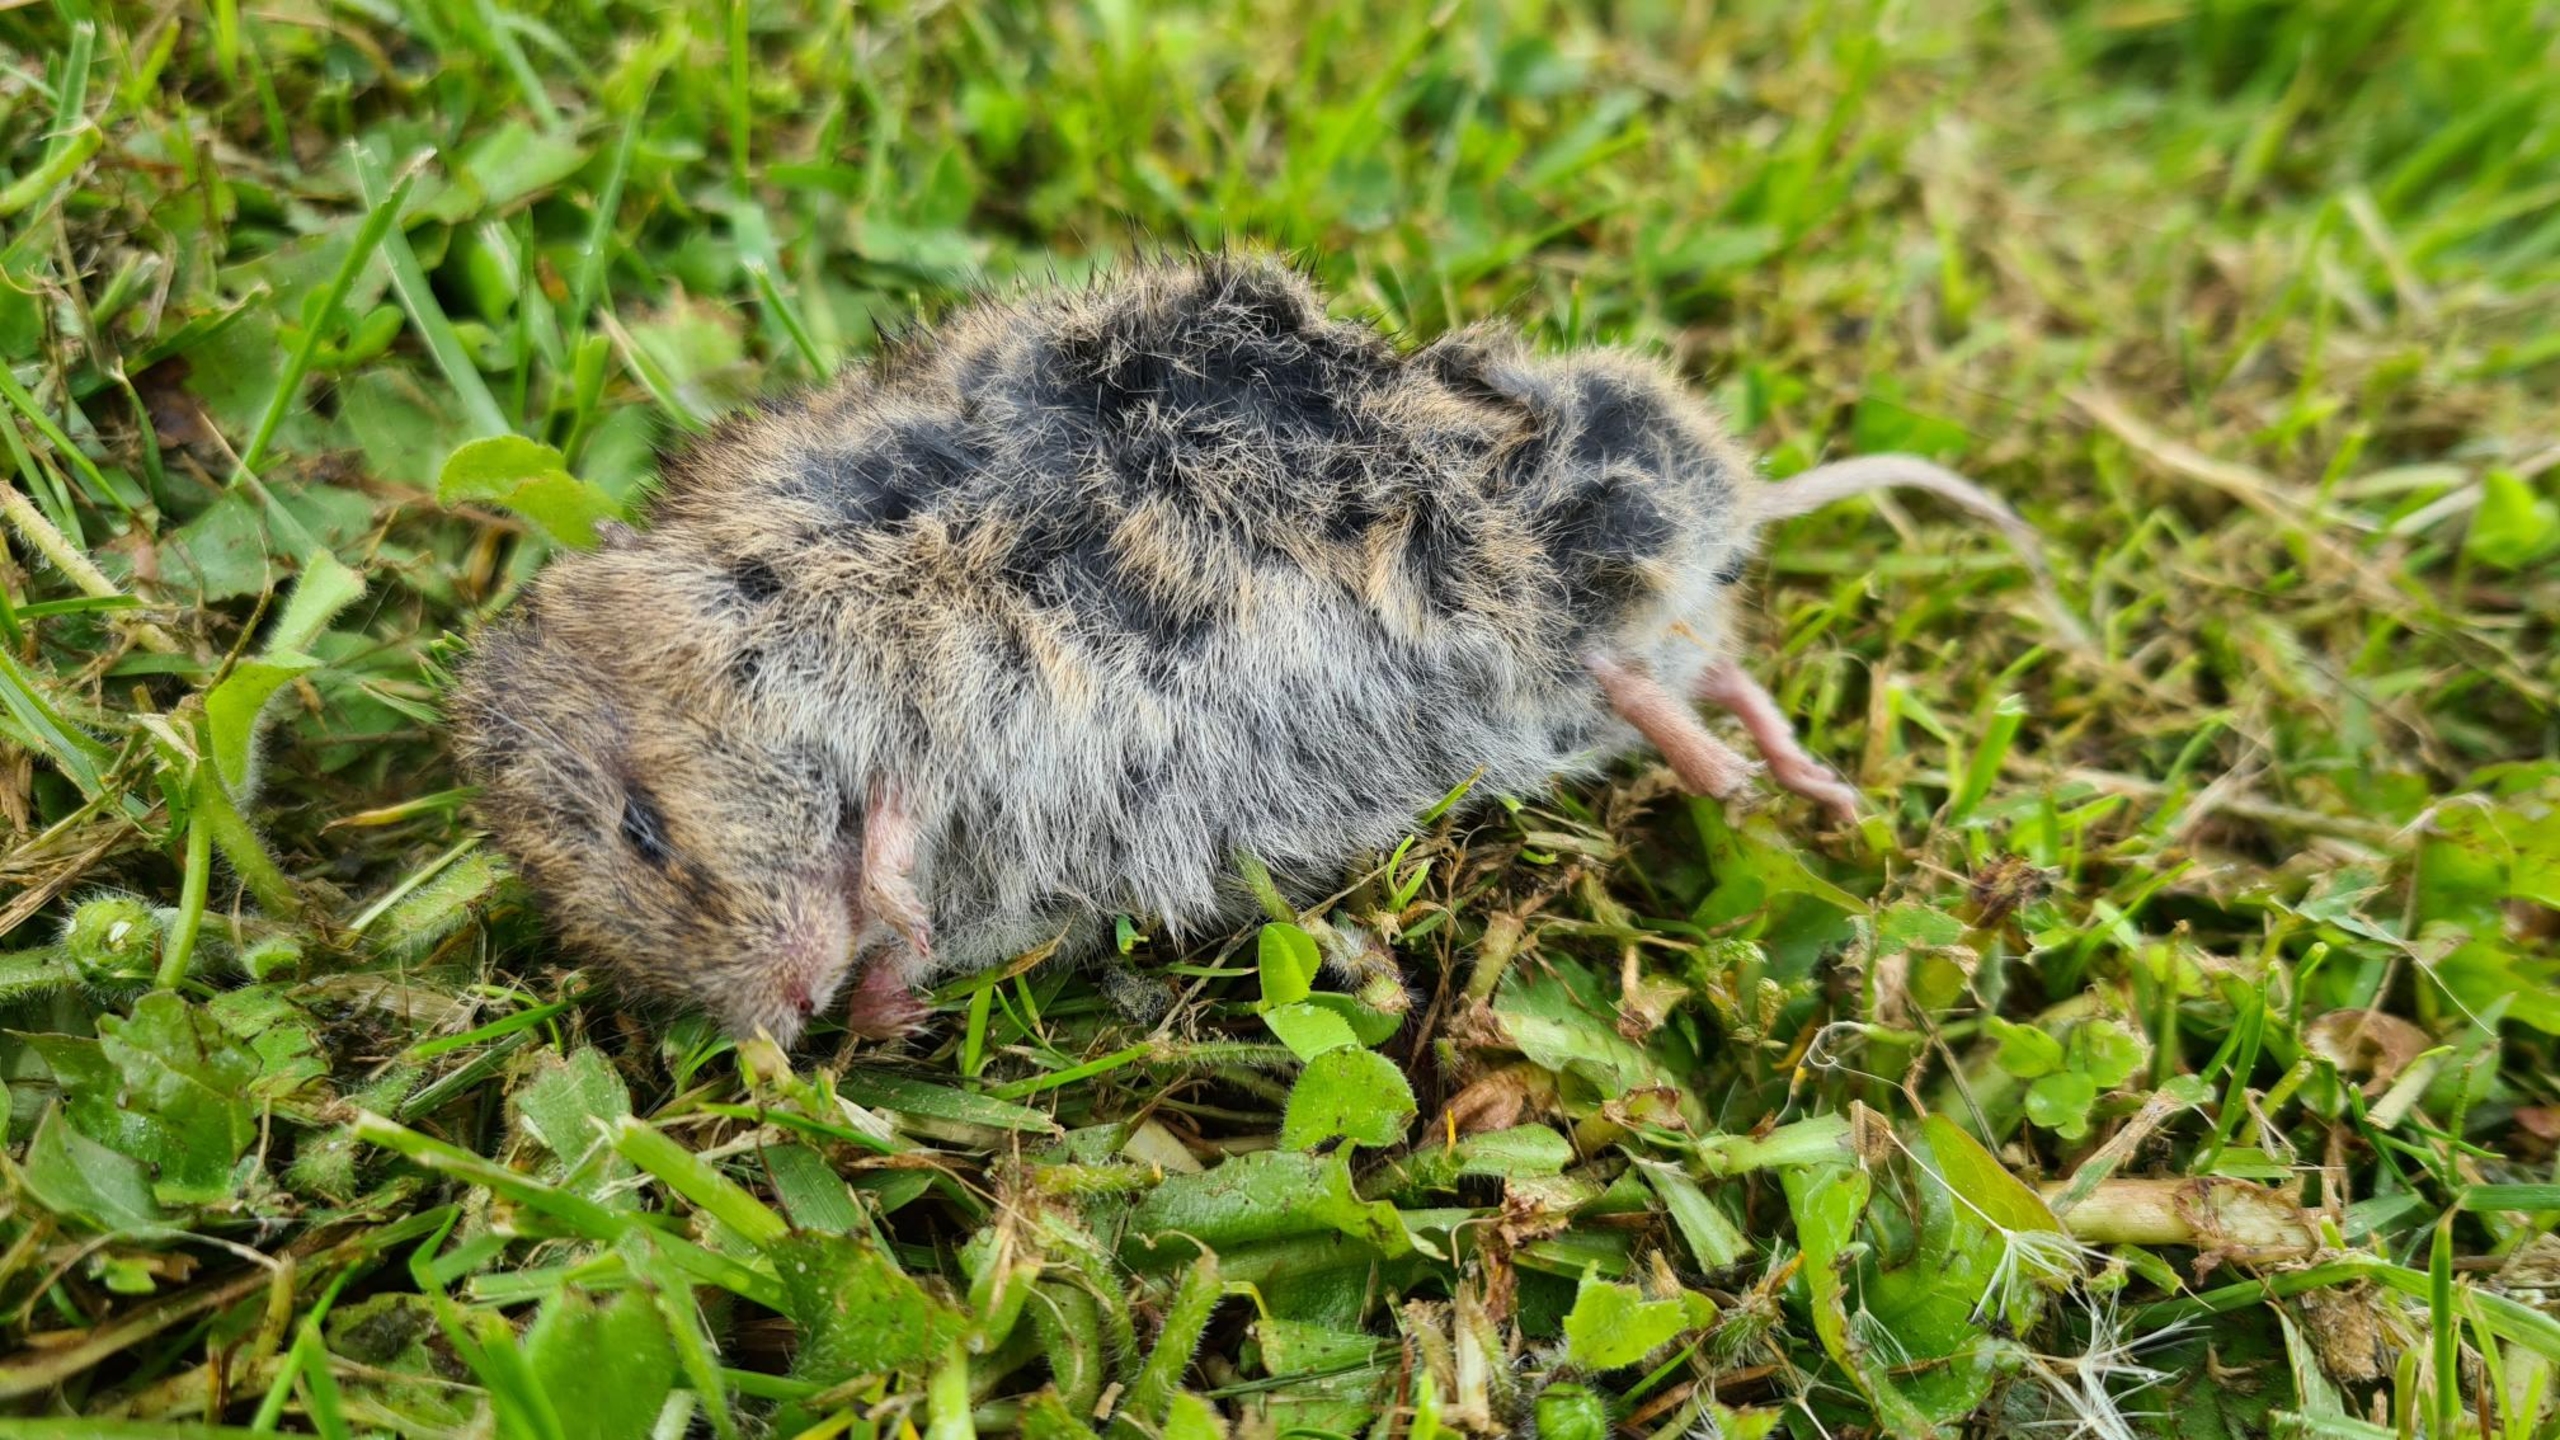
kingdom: Animalia
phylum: Chordata
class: Mammalia
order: Rodentia
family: Cricetidae
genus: Microtus
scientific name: Microtus agrestis
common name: Almindelig markmus
